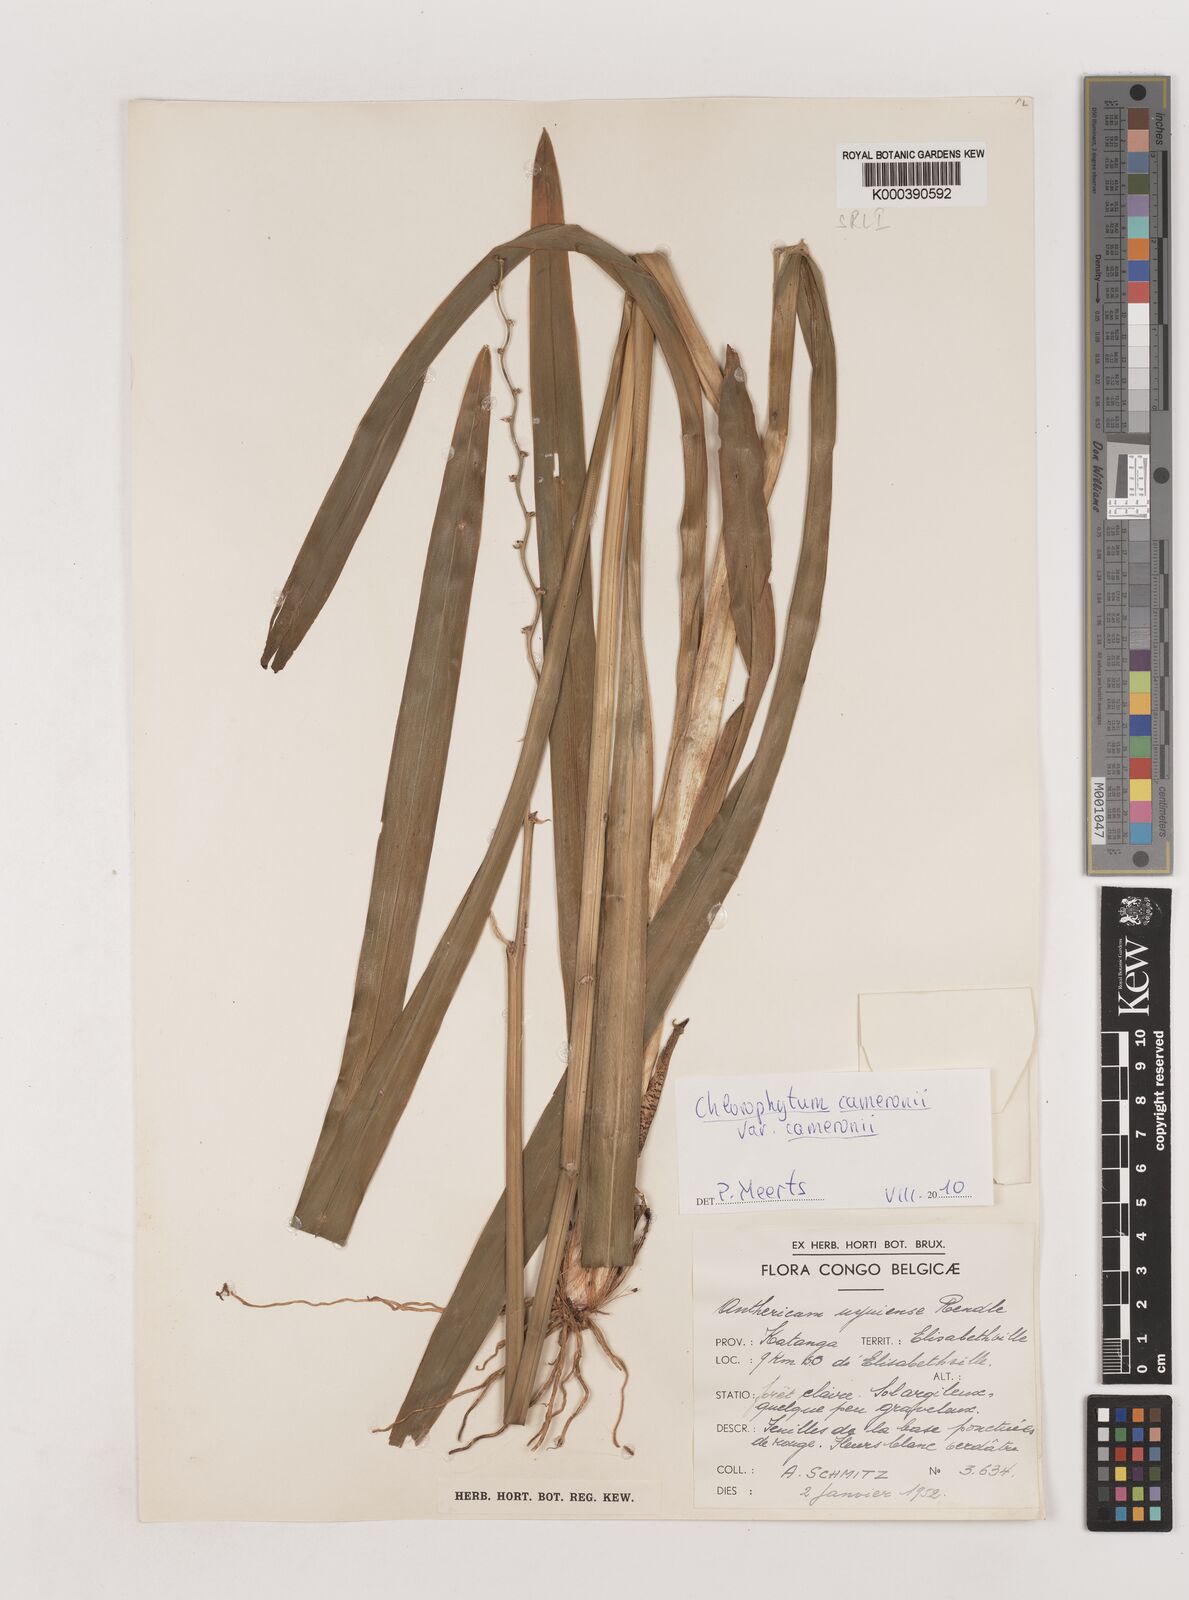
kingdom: Plantae
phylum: Tracheophyta
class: Liliopsida
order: Asparagales
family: Asparagaceae
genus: Chlorophytum
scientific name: Chlorophytum cameronii
